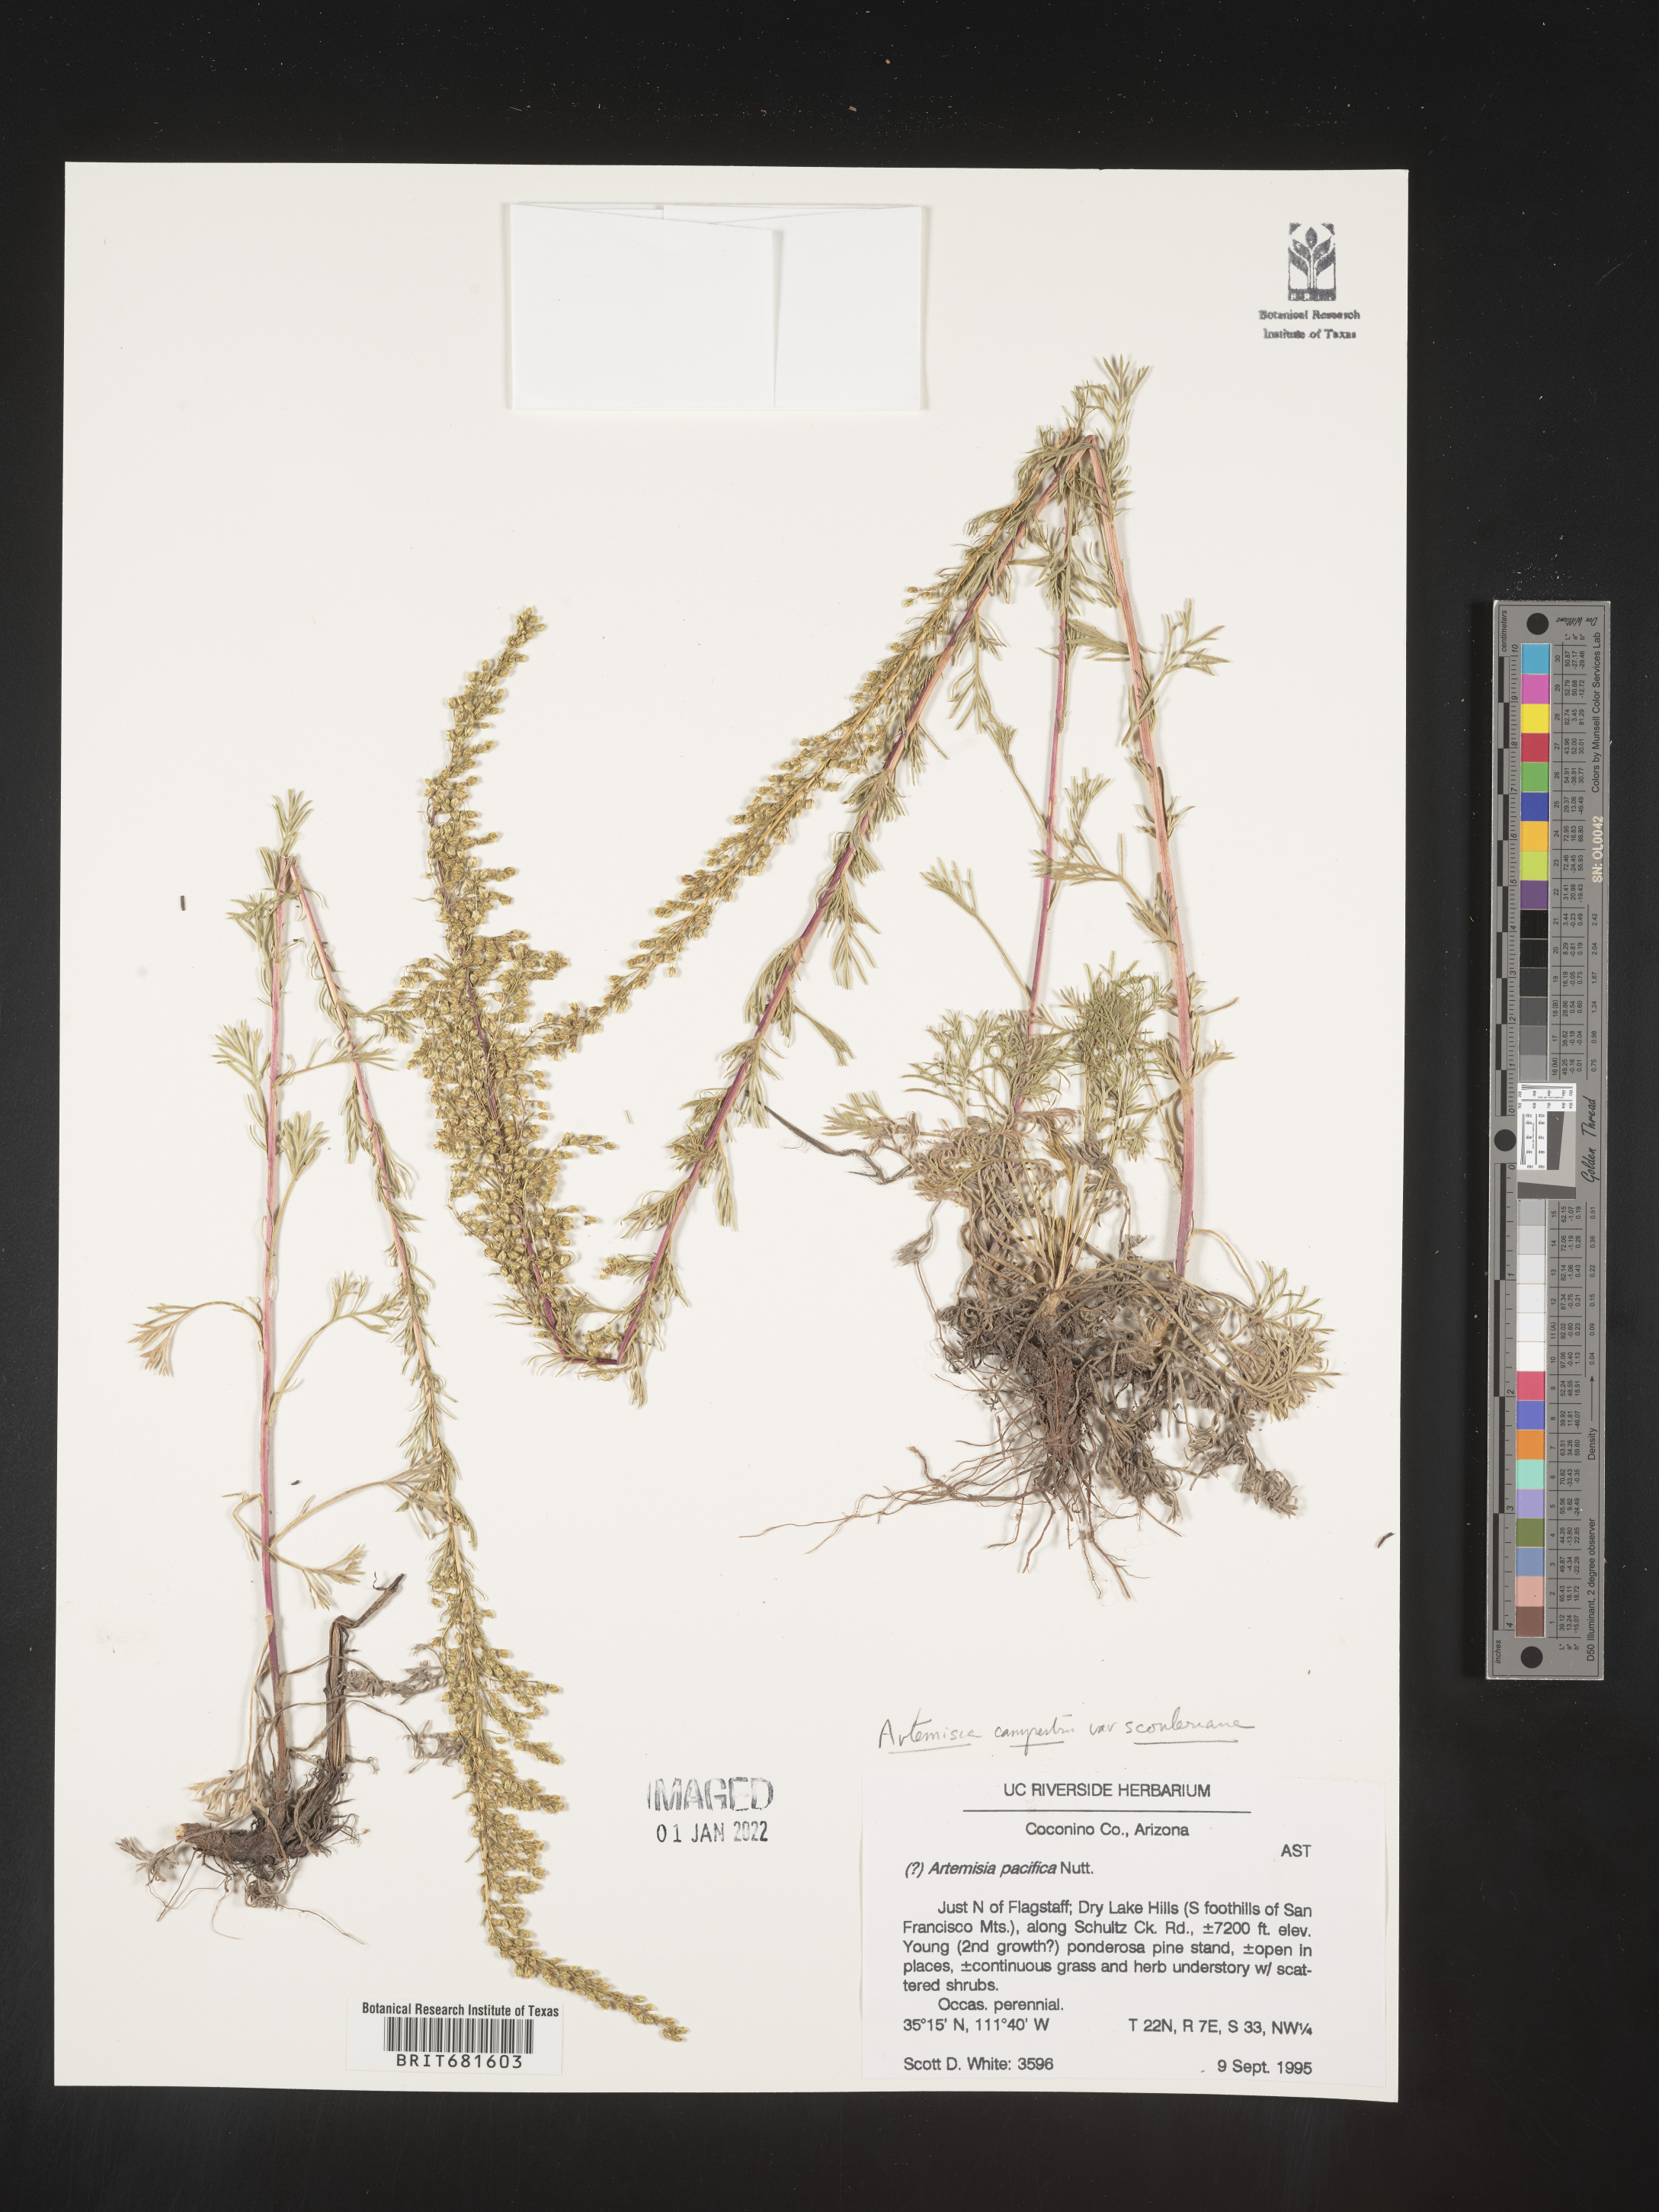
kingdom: Plantae
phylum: Tracheophyta
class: Magnoliopsida
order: Asterales
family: Asteraceae
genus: Artemisia
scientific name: Artemisia campestris
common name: Field wormwood
